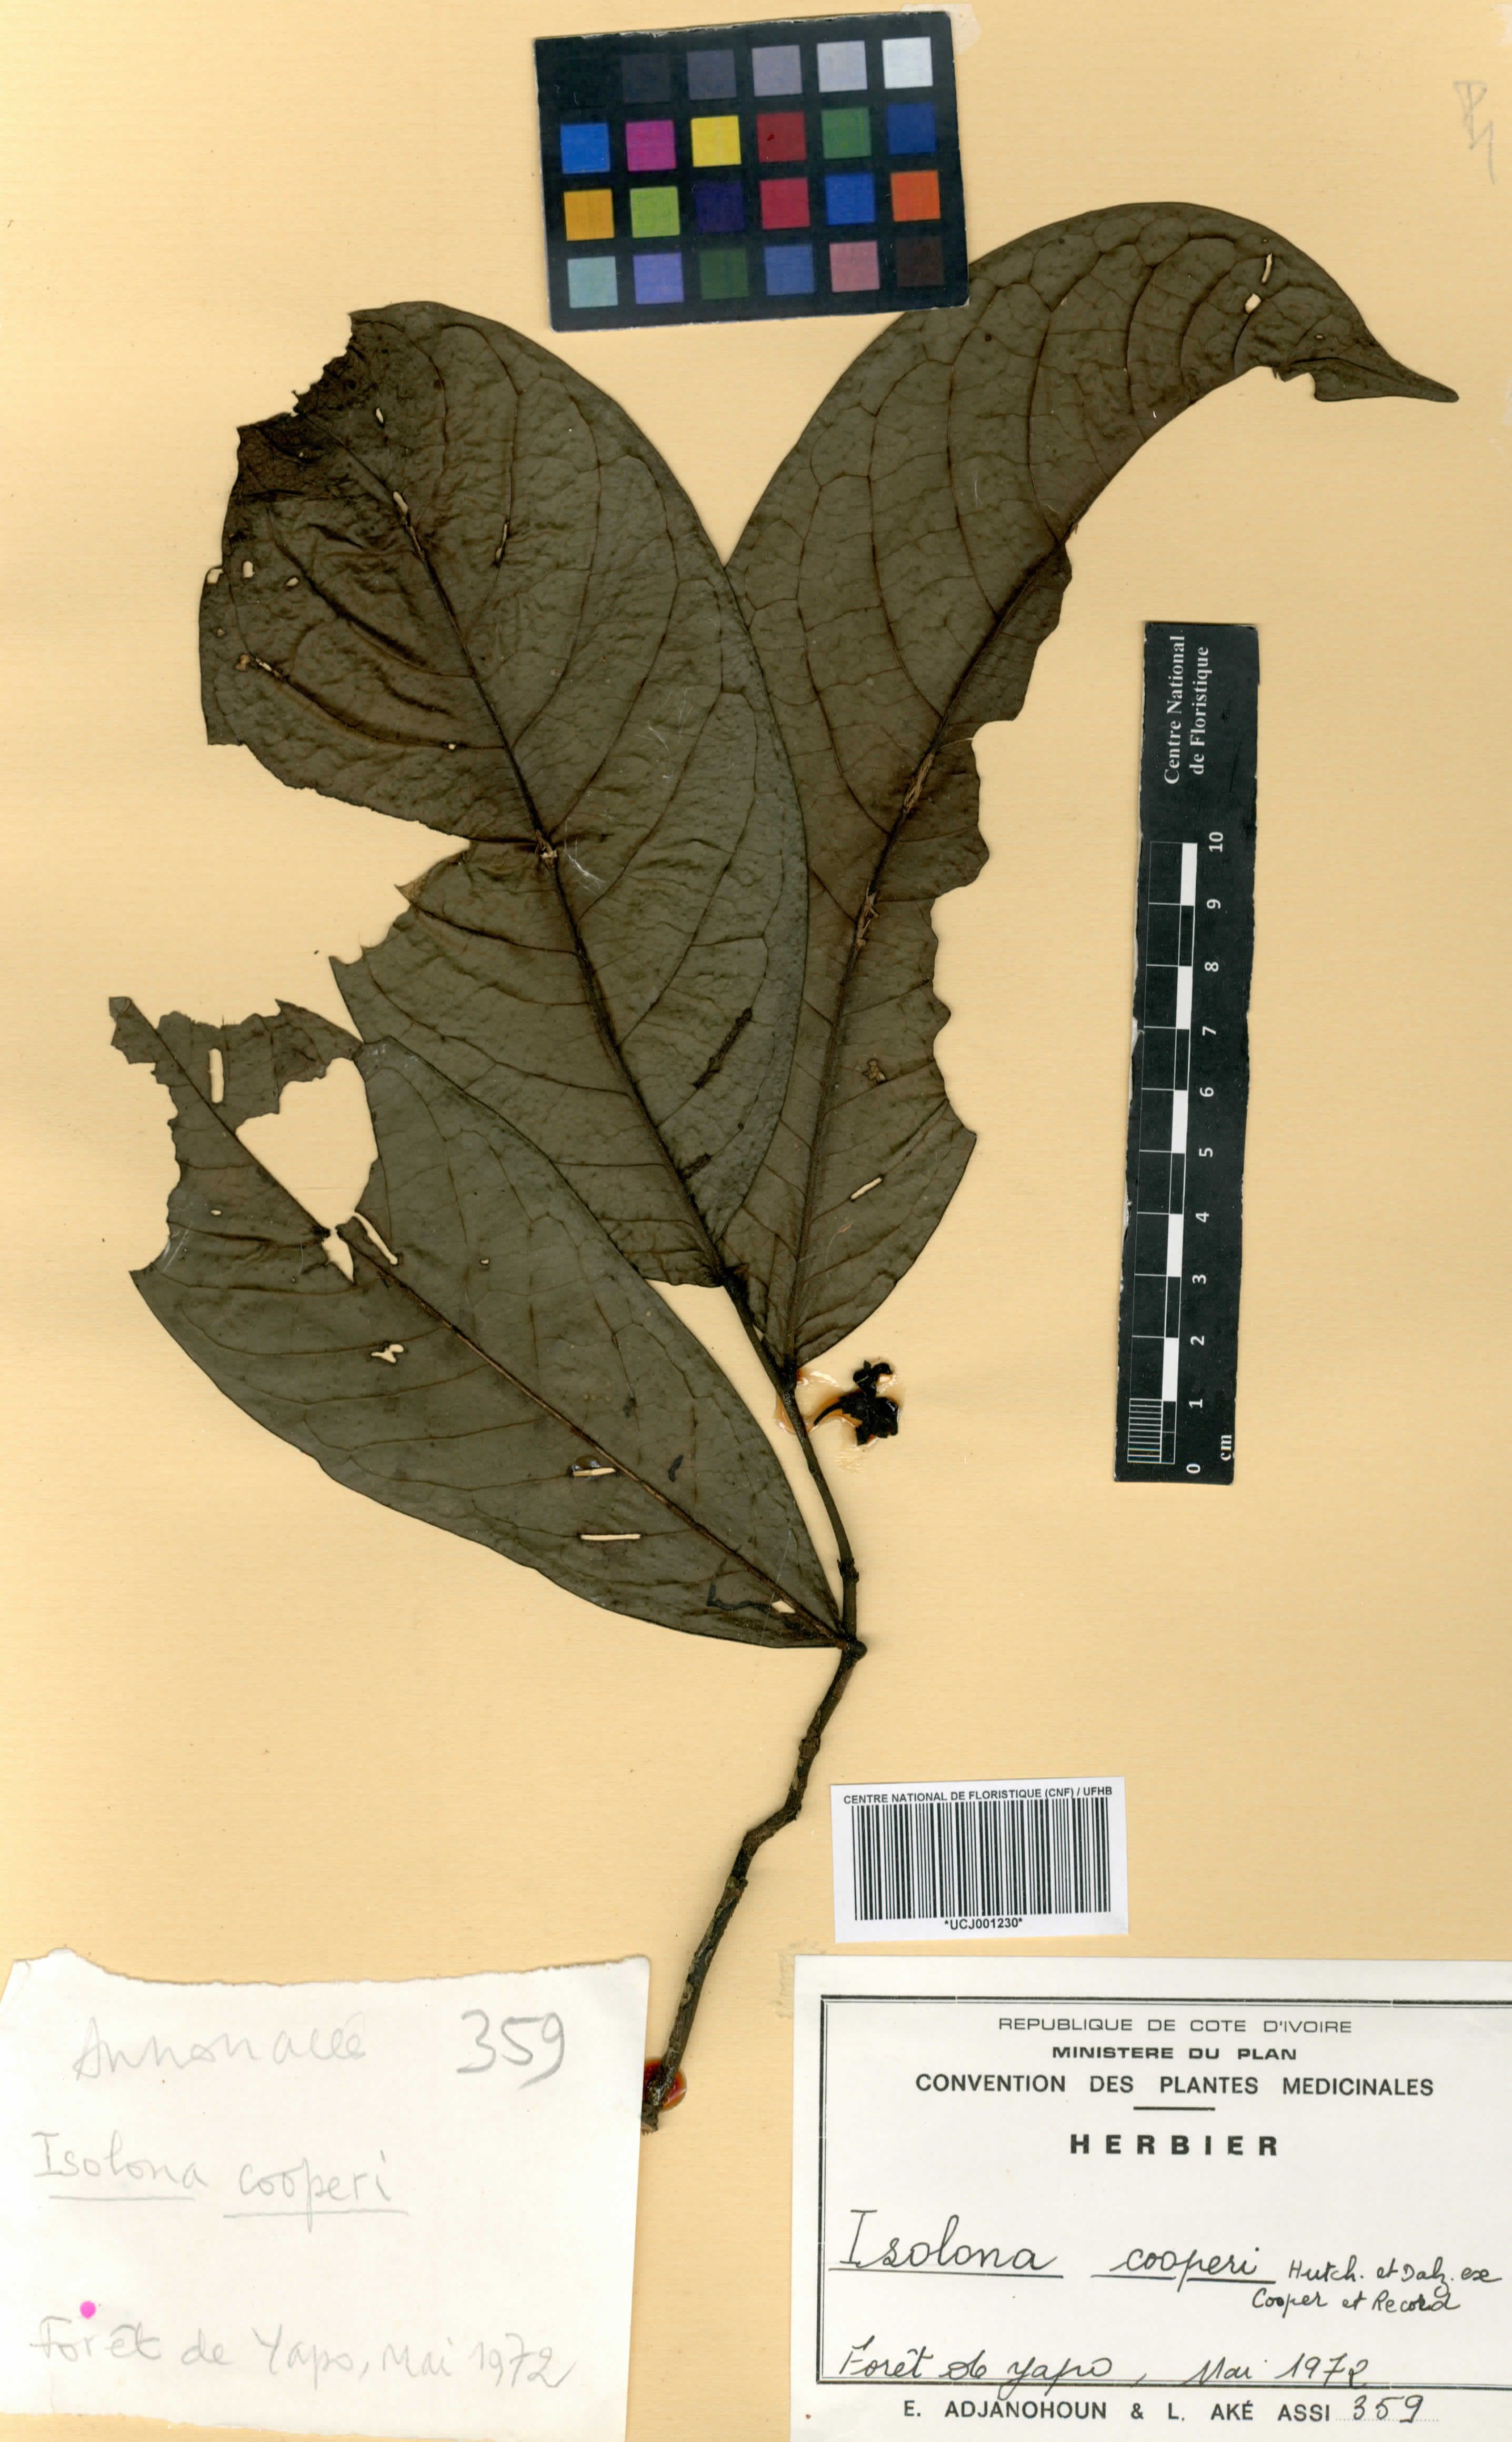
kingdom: Plantae
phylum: Tracheophyta
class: Magnoliopsida
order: Magnoliales
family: Annonaceae
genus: Isolona
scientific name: Isolona cooperi
